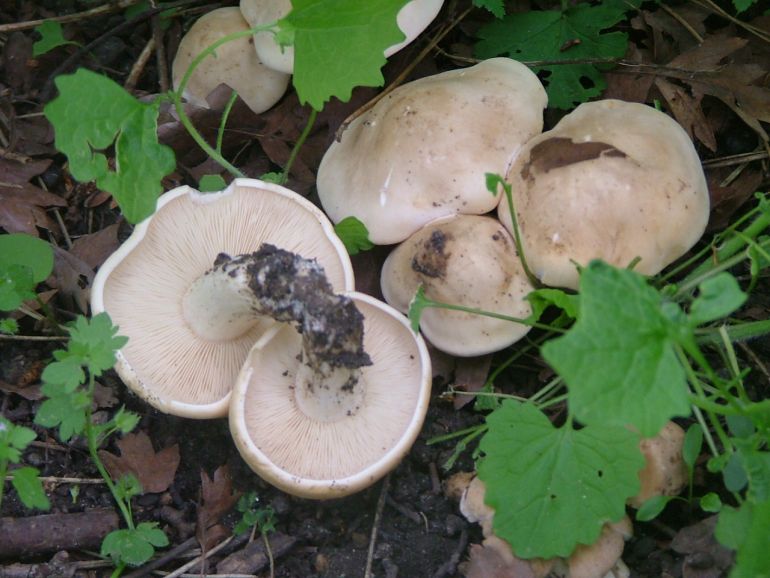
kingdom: Fungi
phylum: Basidiomycota
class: Agaricomycetes
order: Agaricales
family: Lyophyllaceae
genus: Calocybe
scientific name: Calocybe gambosa
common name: vårmusseron
